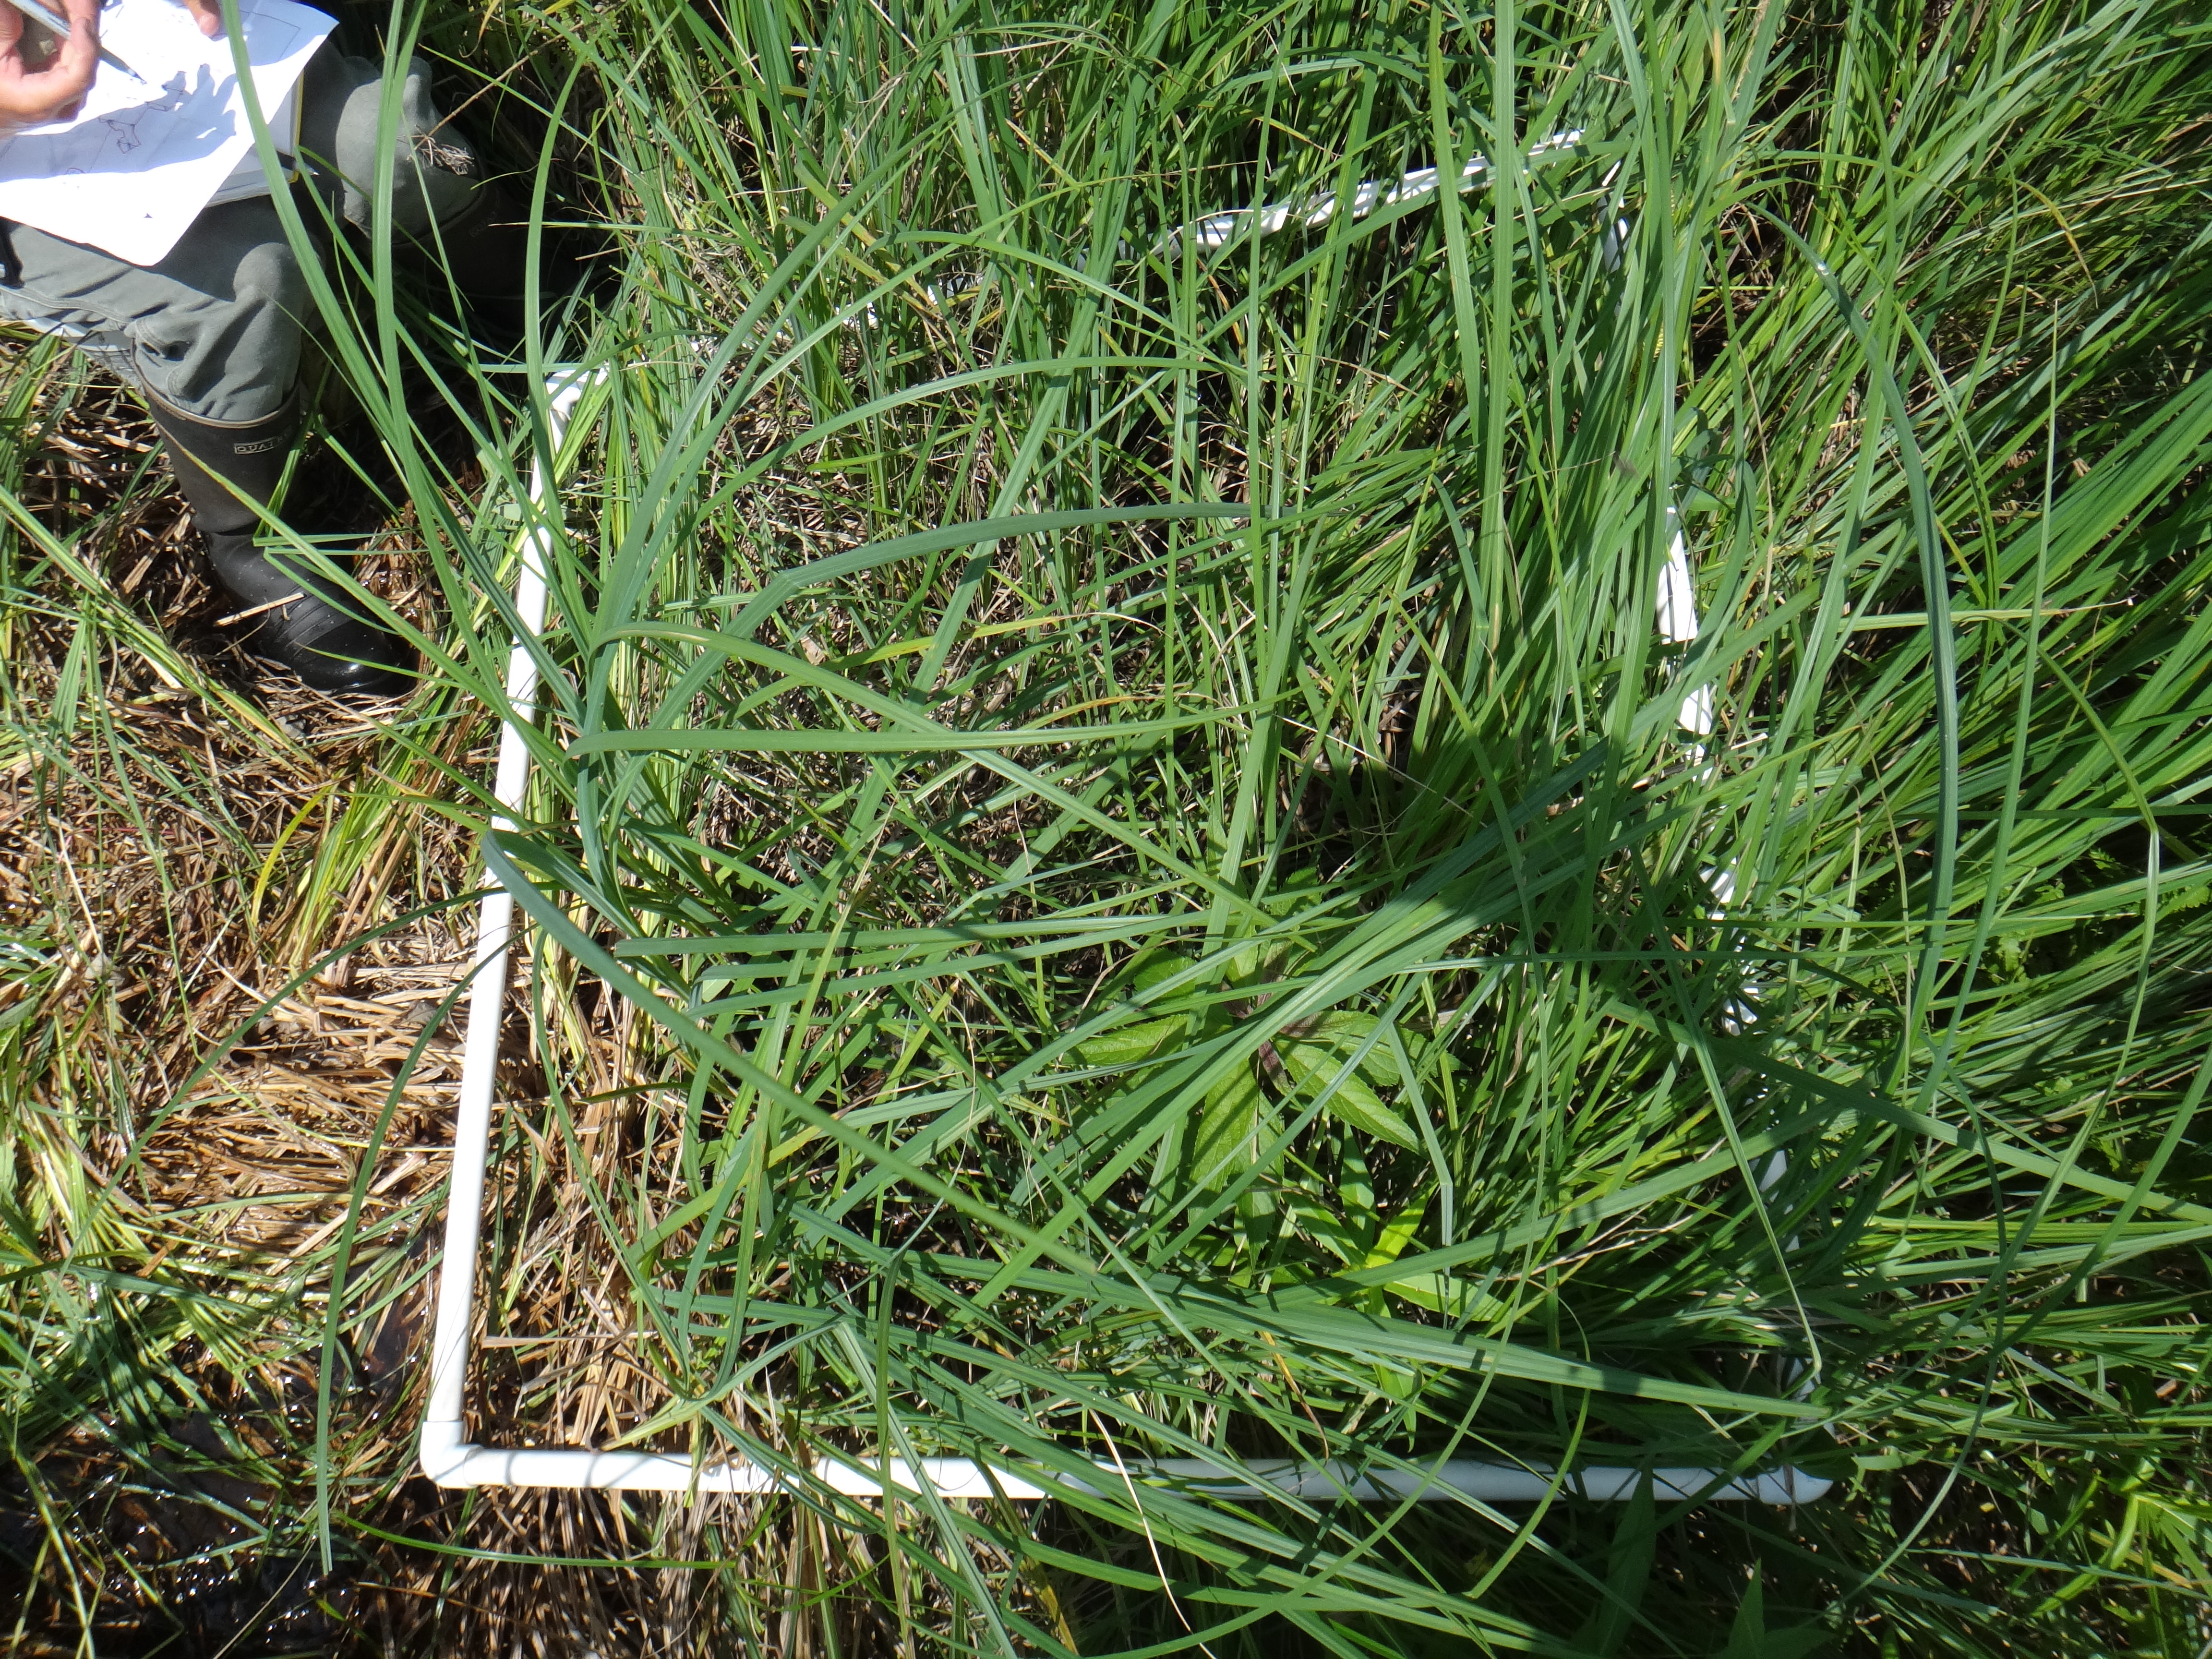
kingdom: Plantae
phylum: Tracheophyta
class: Magnoliopsida
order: Asterales
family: Campanulaceae
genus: Palustricodon
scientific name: Palustricodon aparinoides
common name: Bedstraw bellflower
